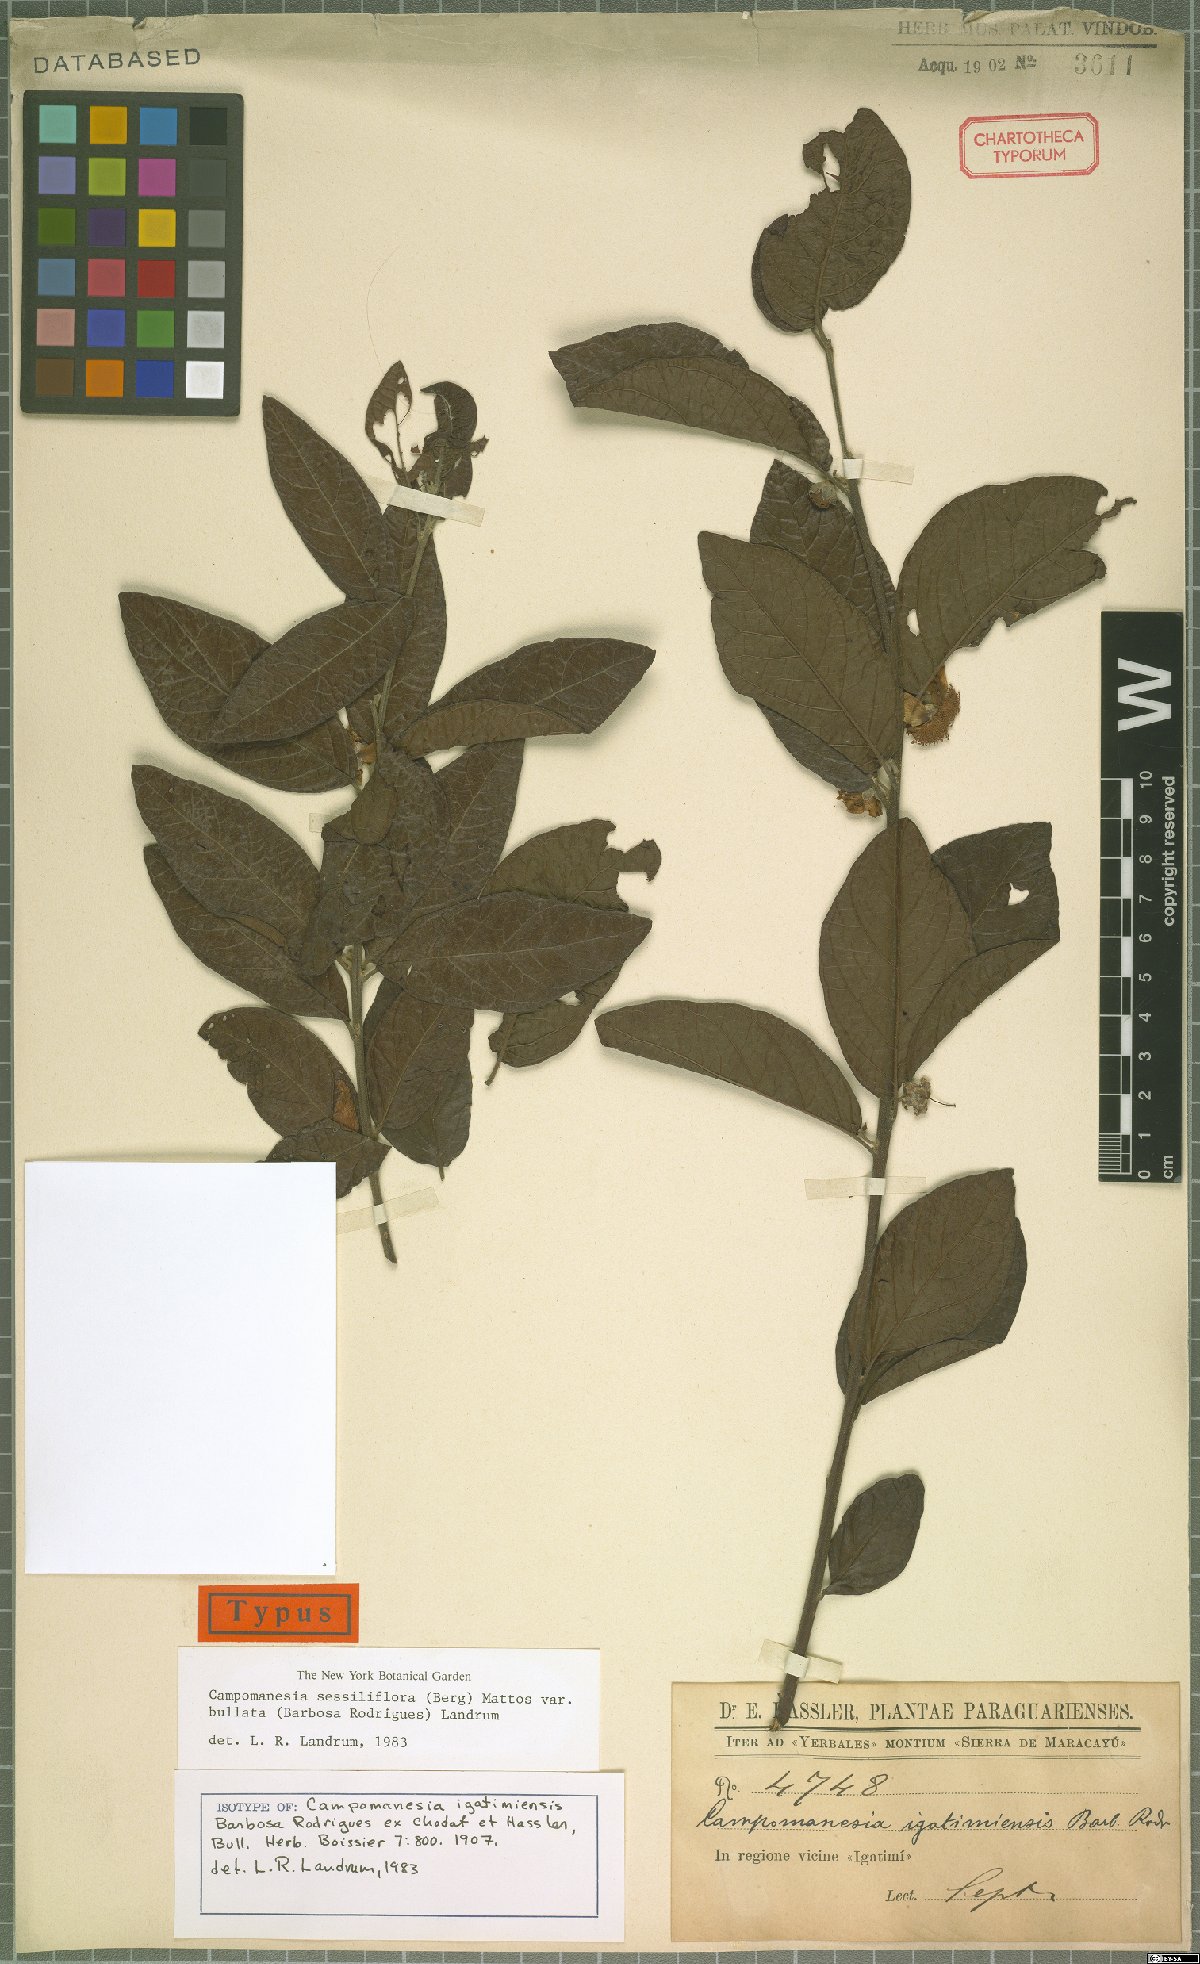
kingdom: Plantae
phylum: Tracheophyta
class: Magnoliopsida
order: Myrtales
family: Myrtaceae
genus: Campomanesia
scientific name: Campomanesia sessiliflora
